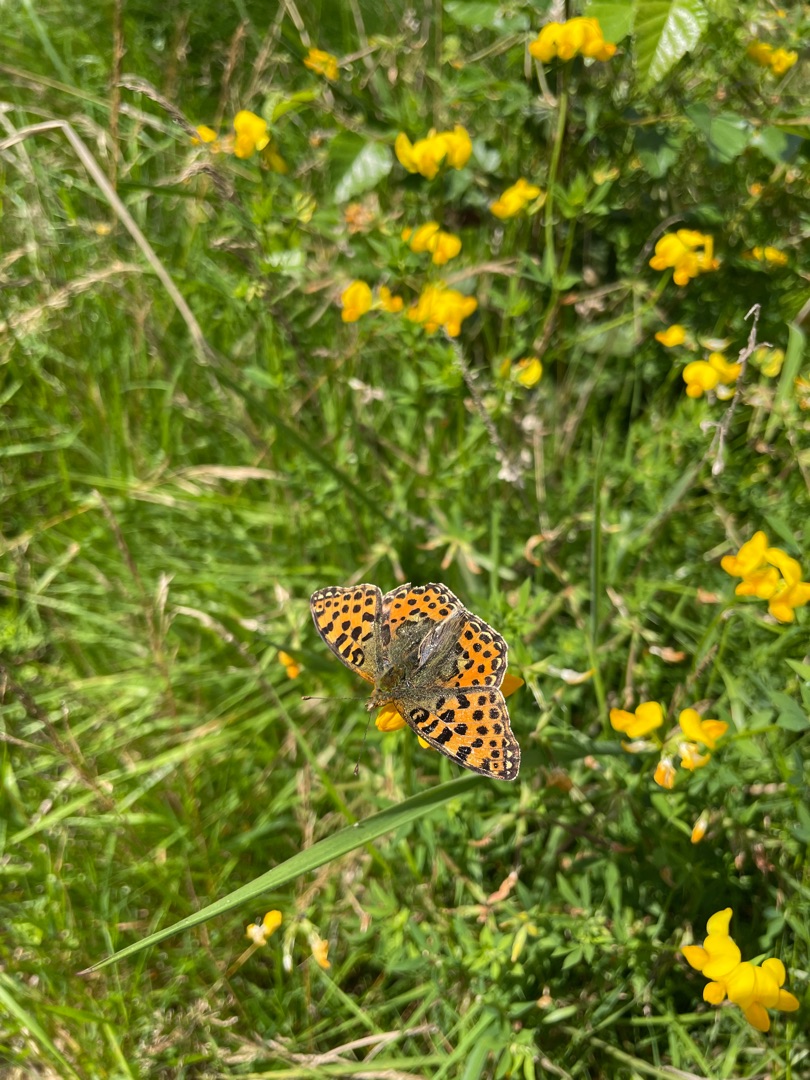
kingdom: Animalia
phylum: Arthropoda
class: Insecta
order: Lepidoptera
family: Nymphalidae
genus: Issoria
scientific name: Issoria lathonia
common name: Storplettet perlemorsommerfugl
